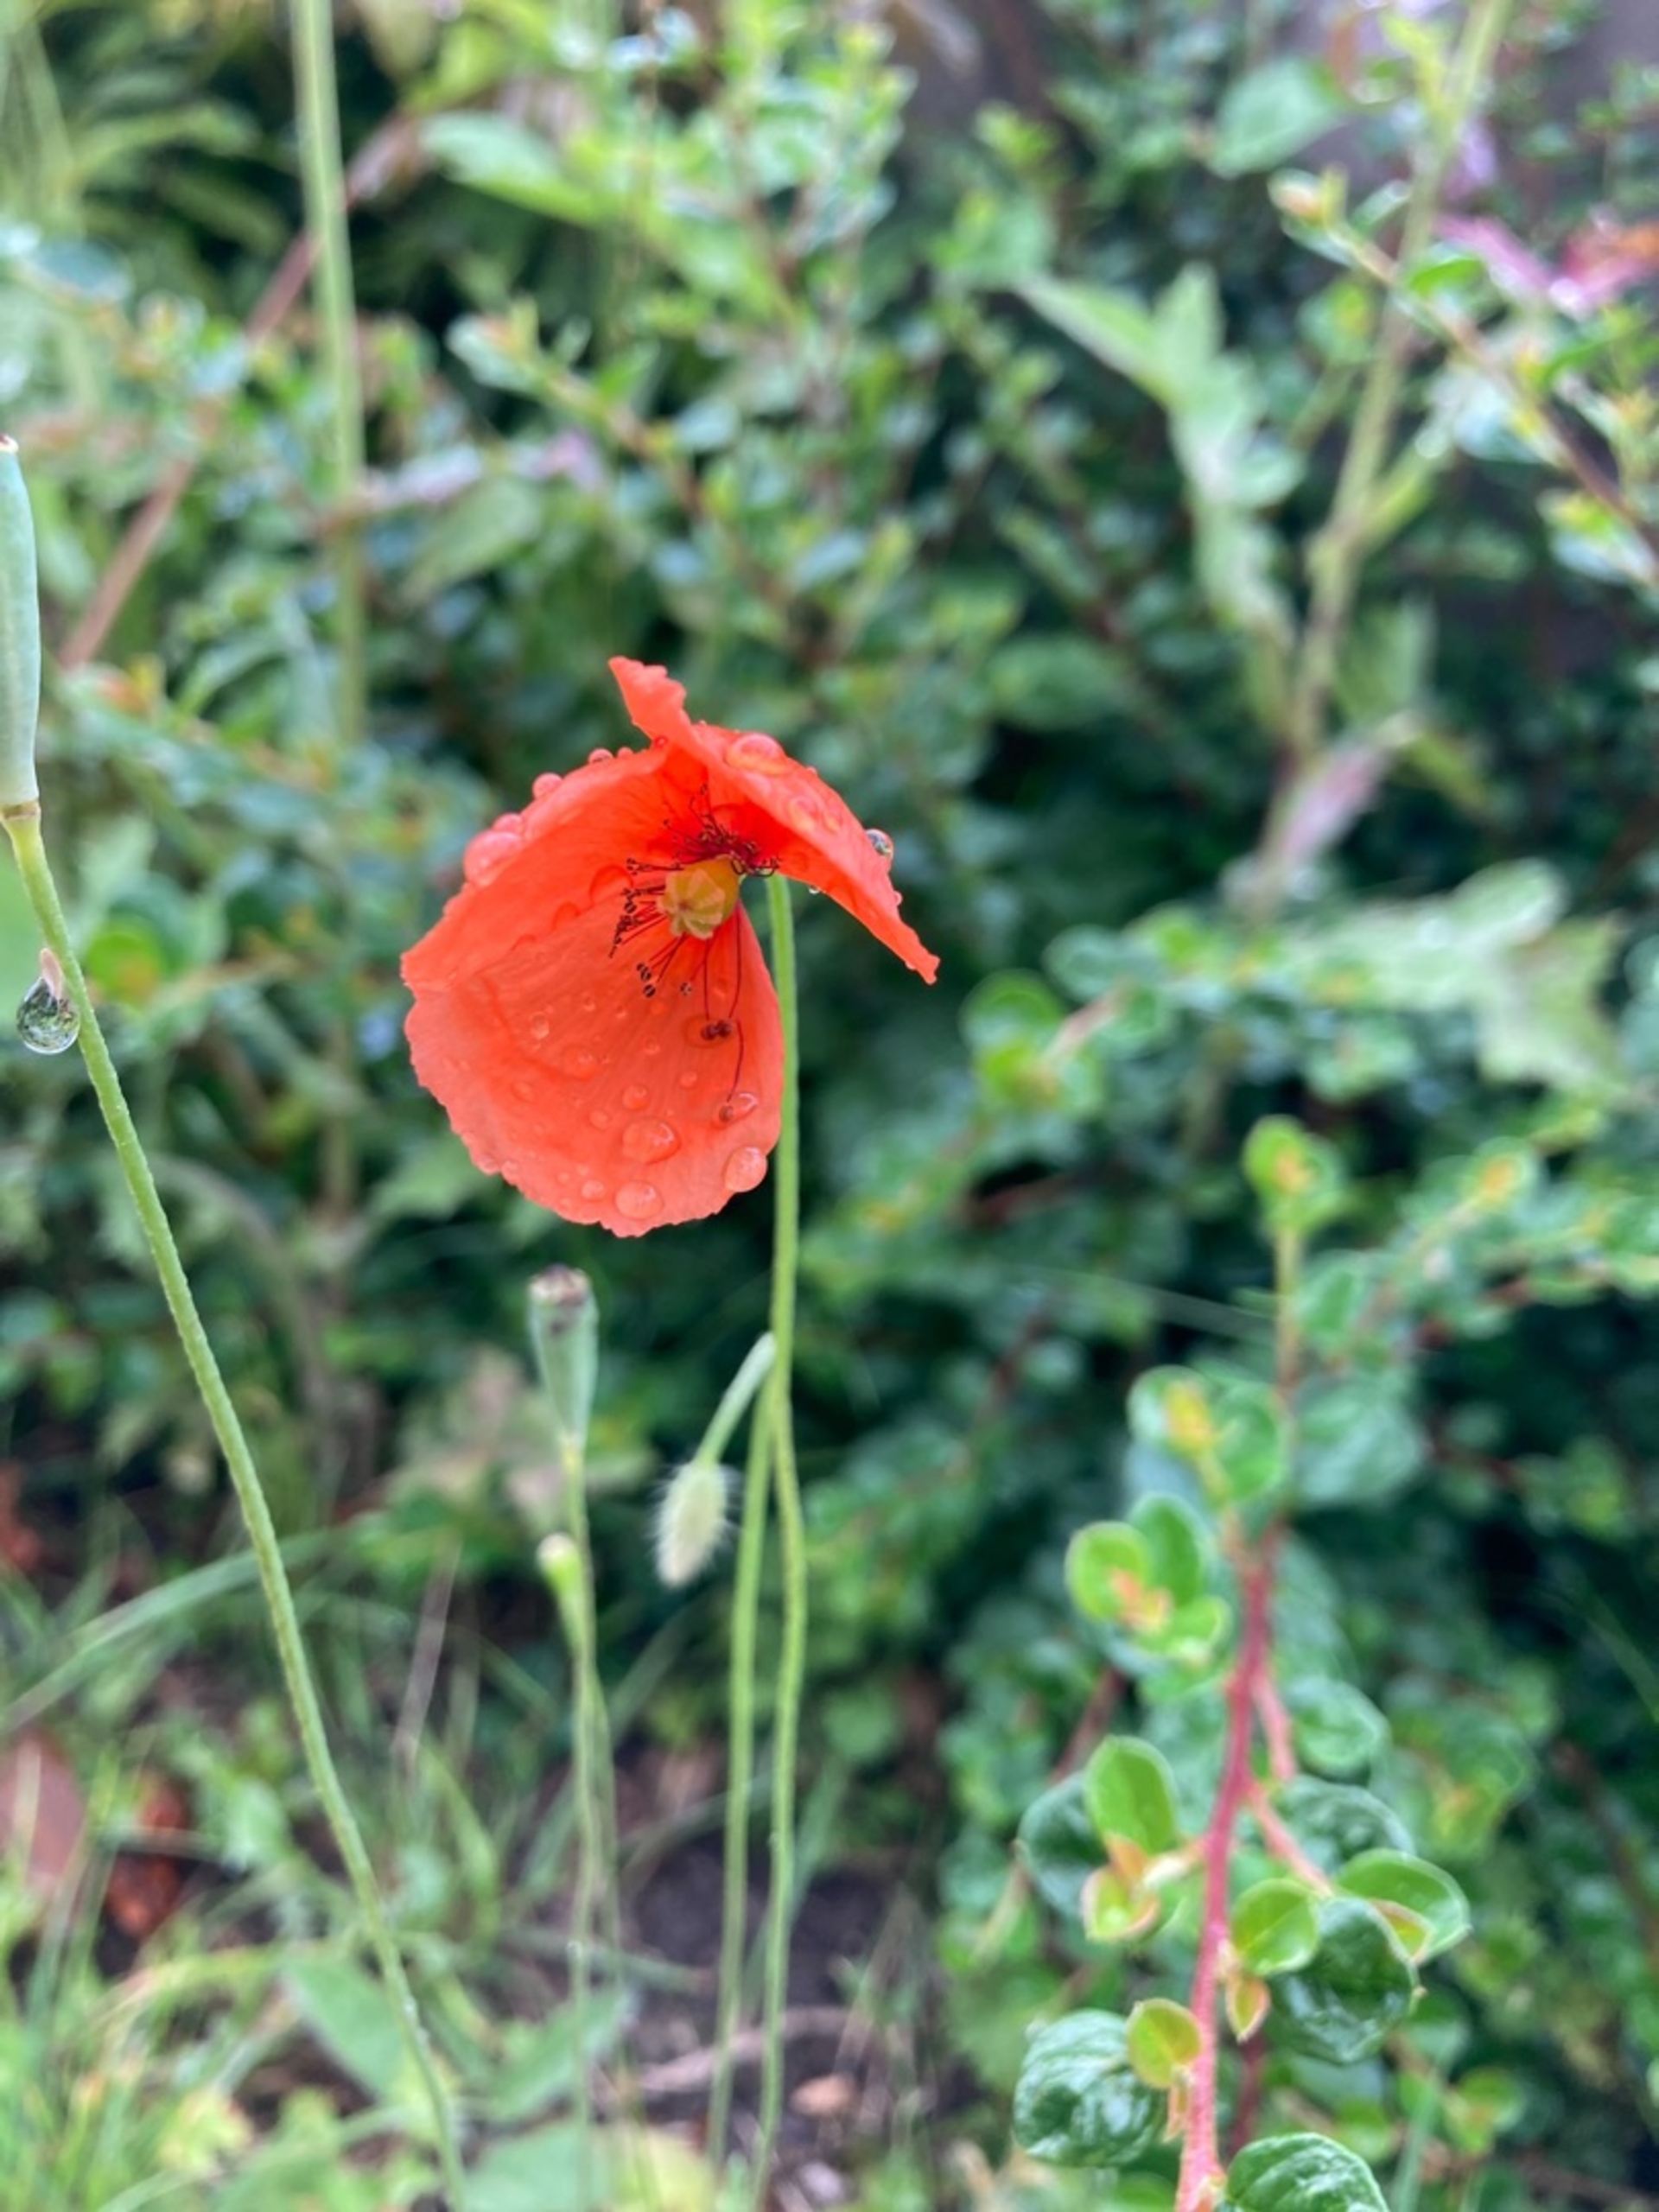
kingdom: Plantae
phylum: Tracheophyta
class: Magnoliopsida
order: Ranunculales
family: Papaveraceae
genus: Papaver
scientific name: Papaver dubium
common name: Gærde-valmue
